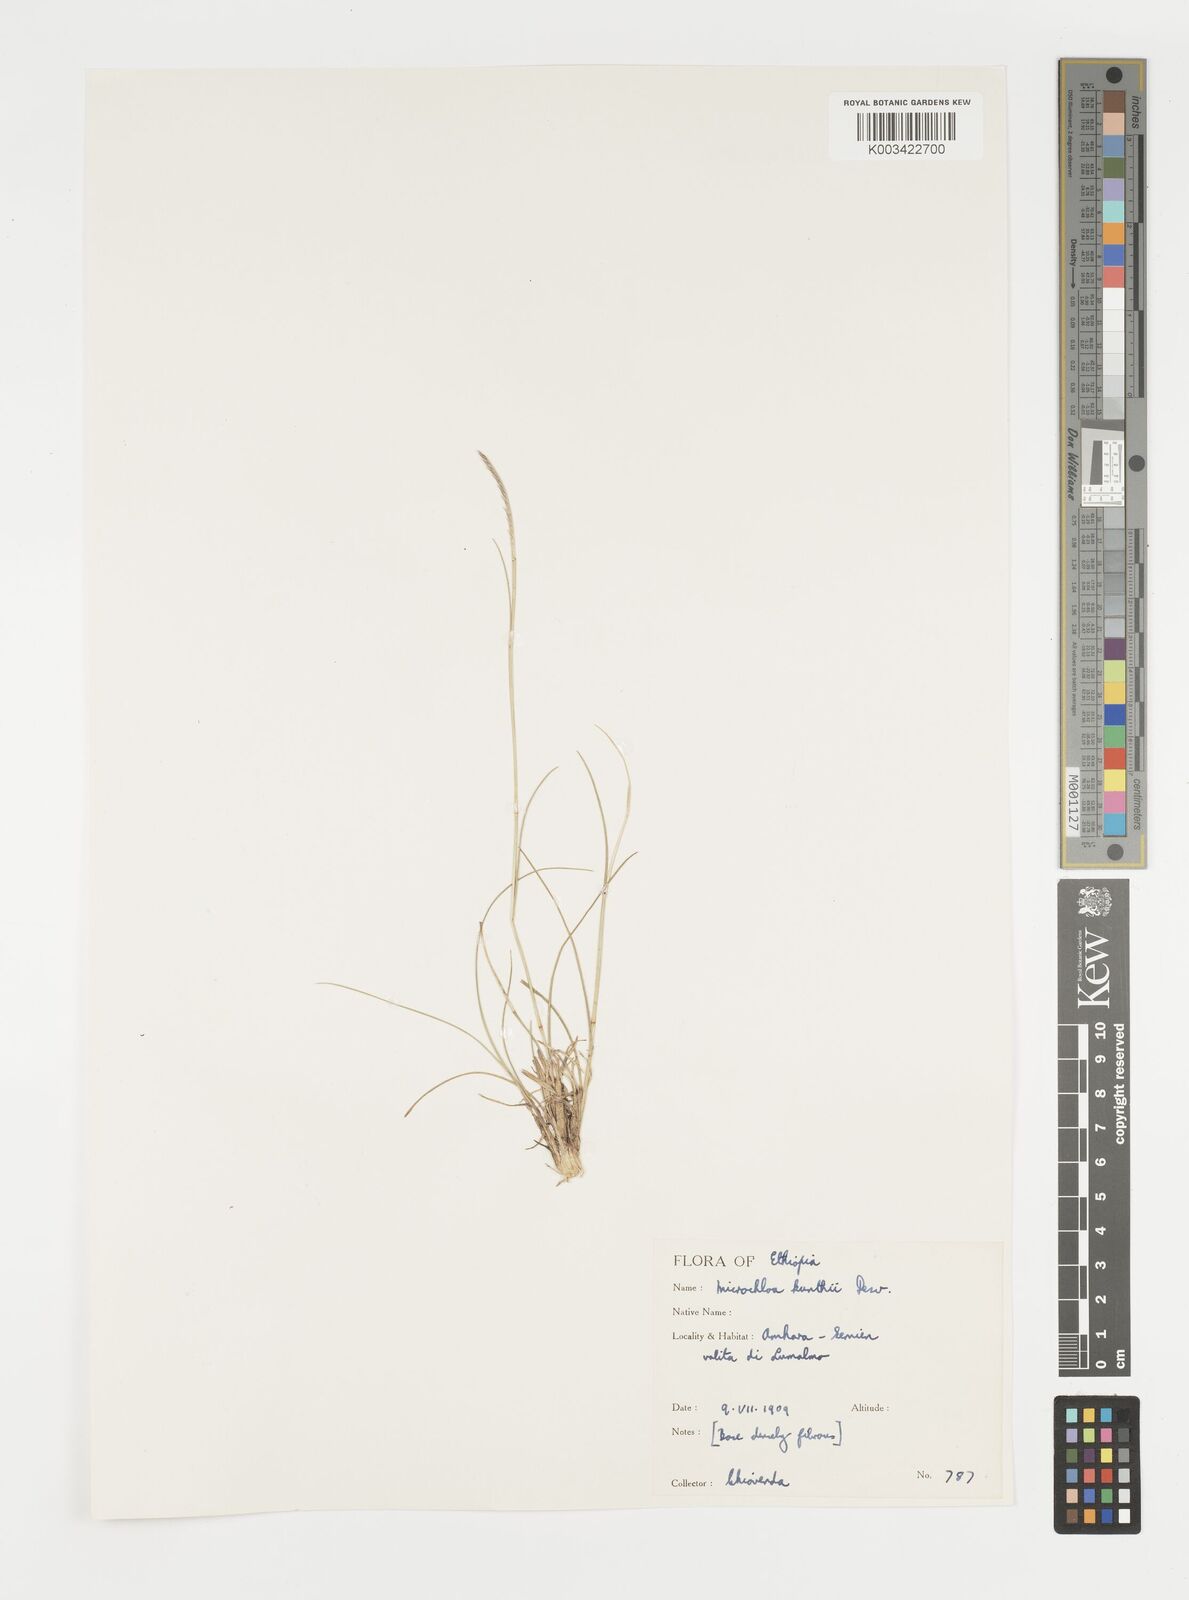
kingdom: Plantae
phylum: Tracheophyta
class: Liliopsida
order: Poales
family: Poaceae
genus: Microchloa
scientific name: Microchloa kunthii
